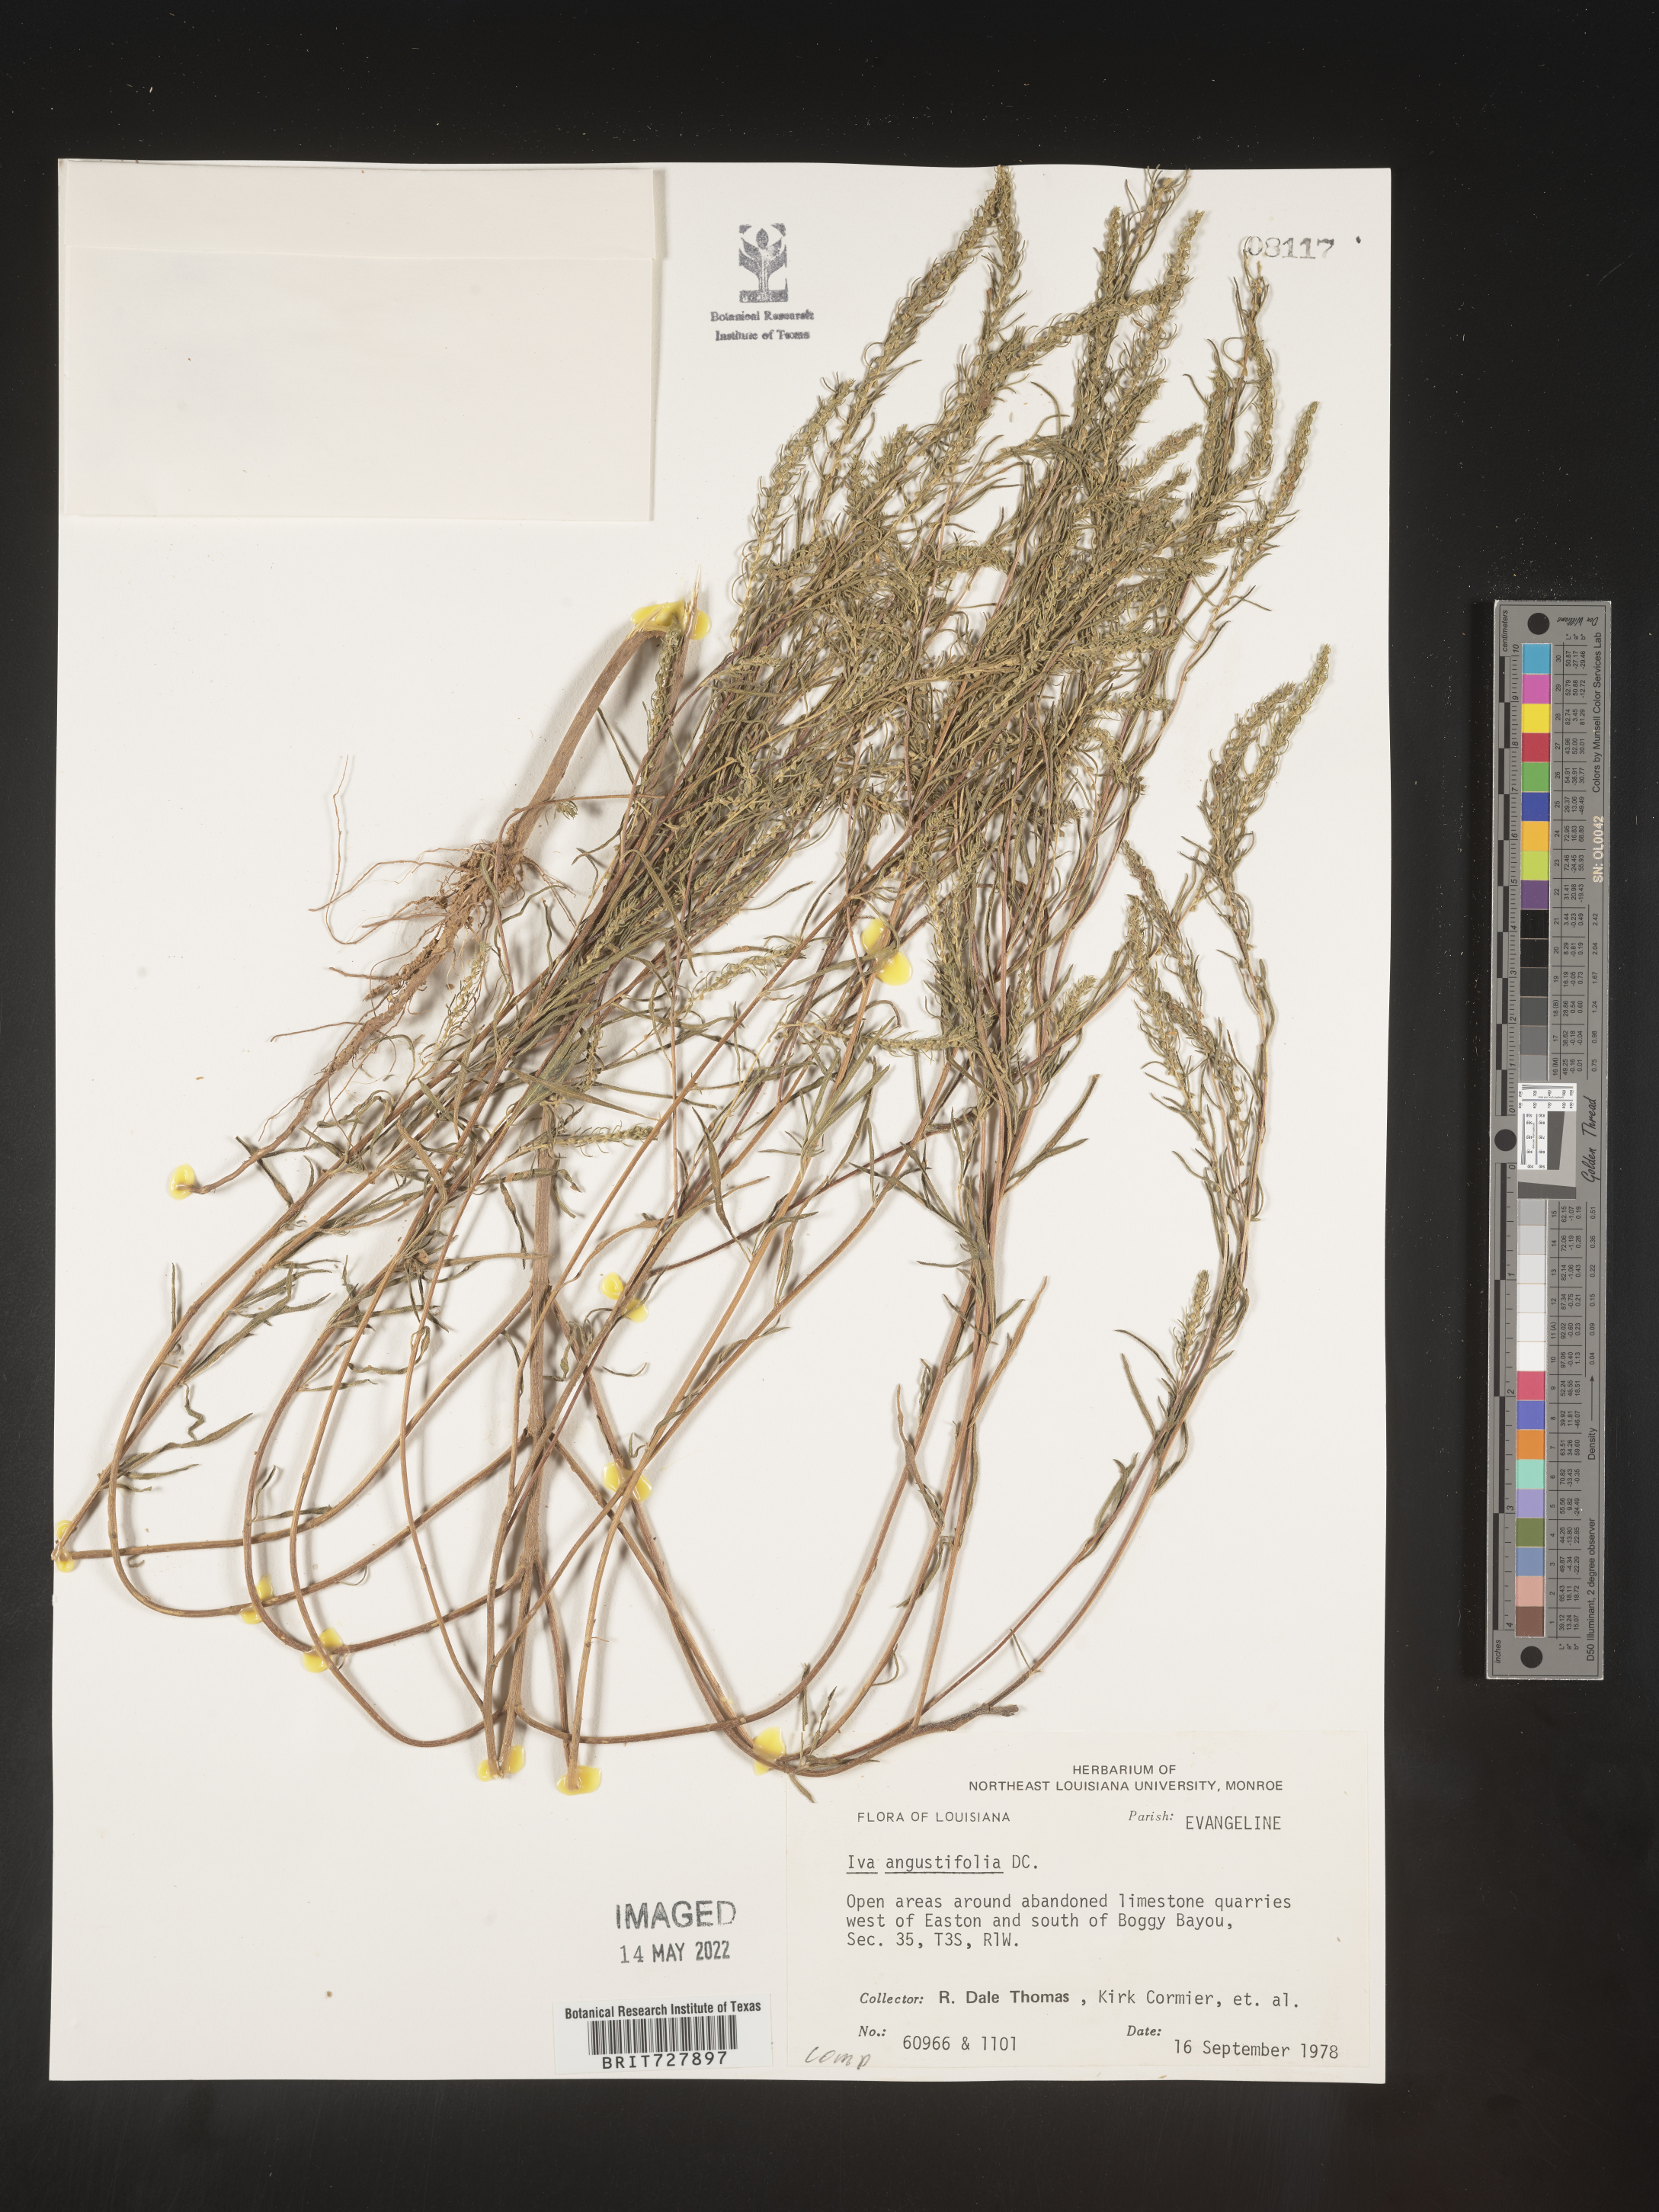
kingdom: Plantae
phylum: Tracheophyta
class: Magnoliopsida
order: Asterales
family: Asteraceae
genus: Iva
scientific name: Iva annua
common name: Marsh-elder
